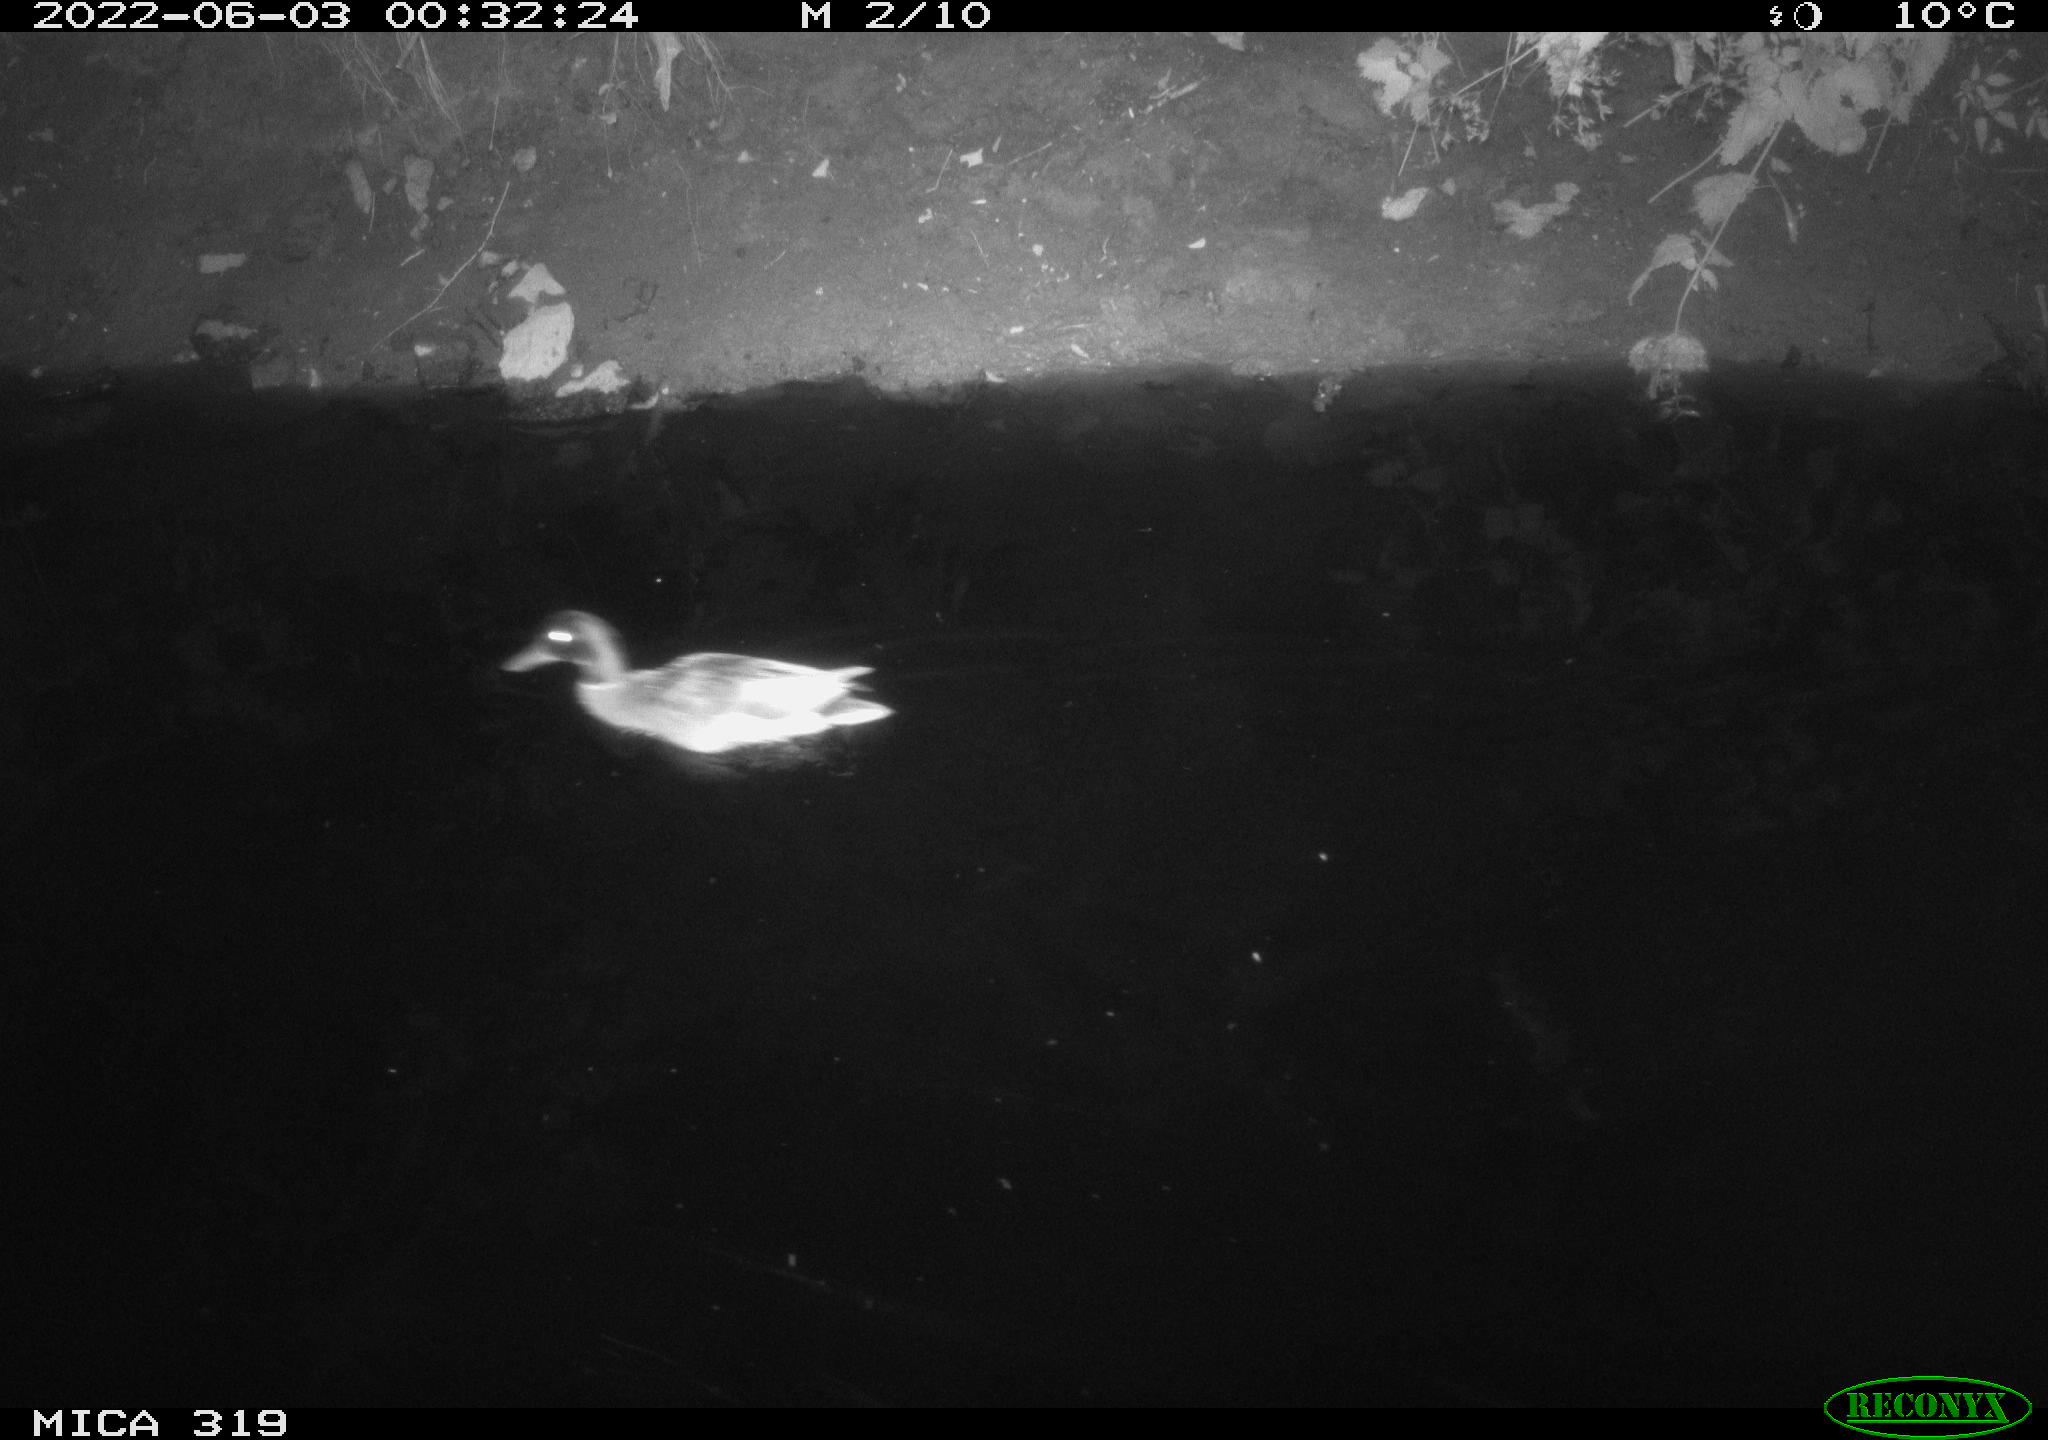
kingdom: Animalia
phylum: Chordata
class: Aves
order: Anseriformes
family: Anatidae
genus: Anas
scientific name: Anas
